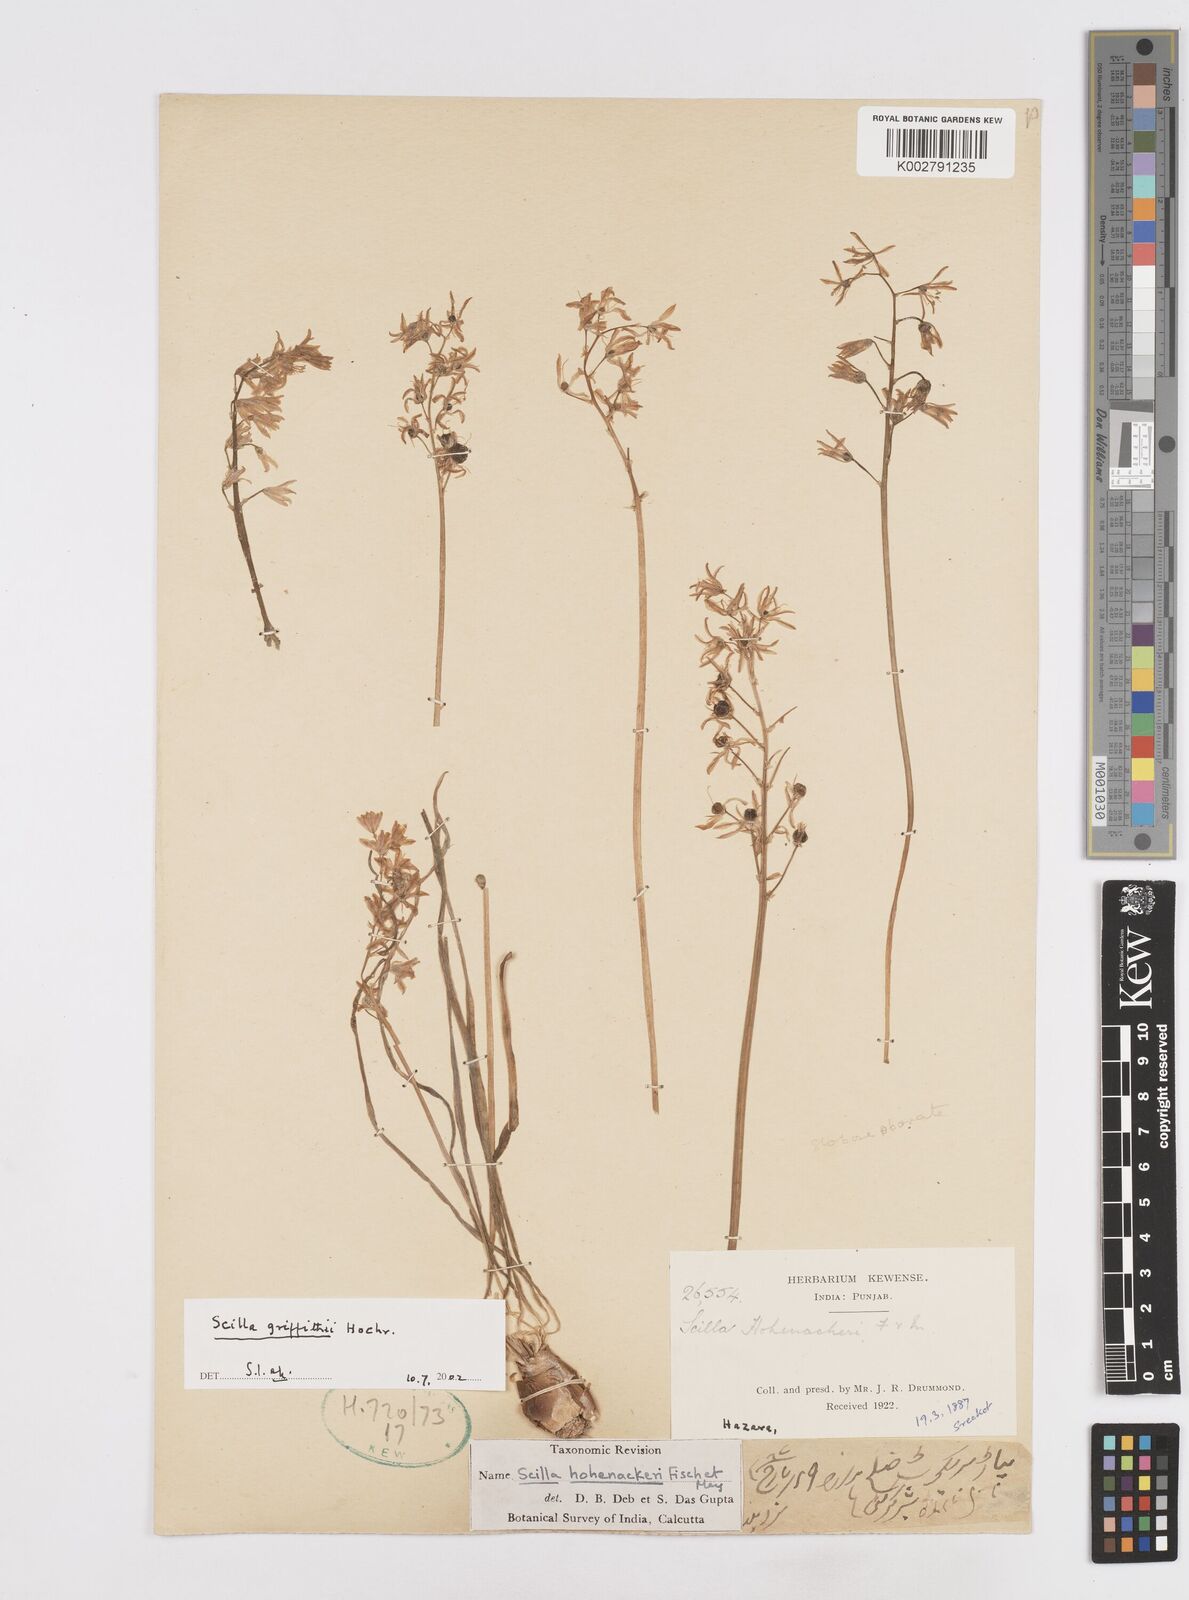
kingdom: Plantae
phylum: Tracheophyta
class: Liliopsida
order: Asparagales
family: Asparagaceae
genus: Scilla
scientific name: Scilla bifolia
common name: Alpine squill
